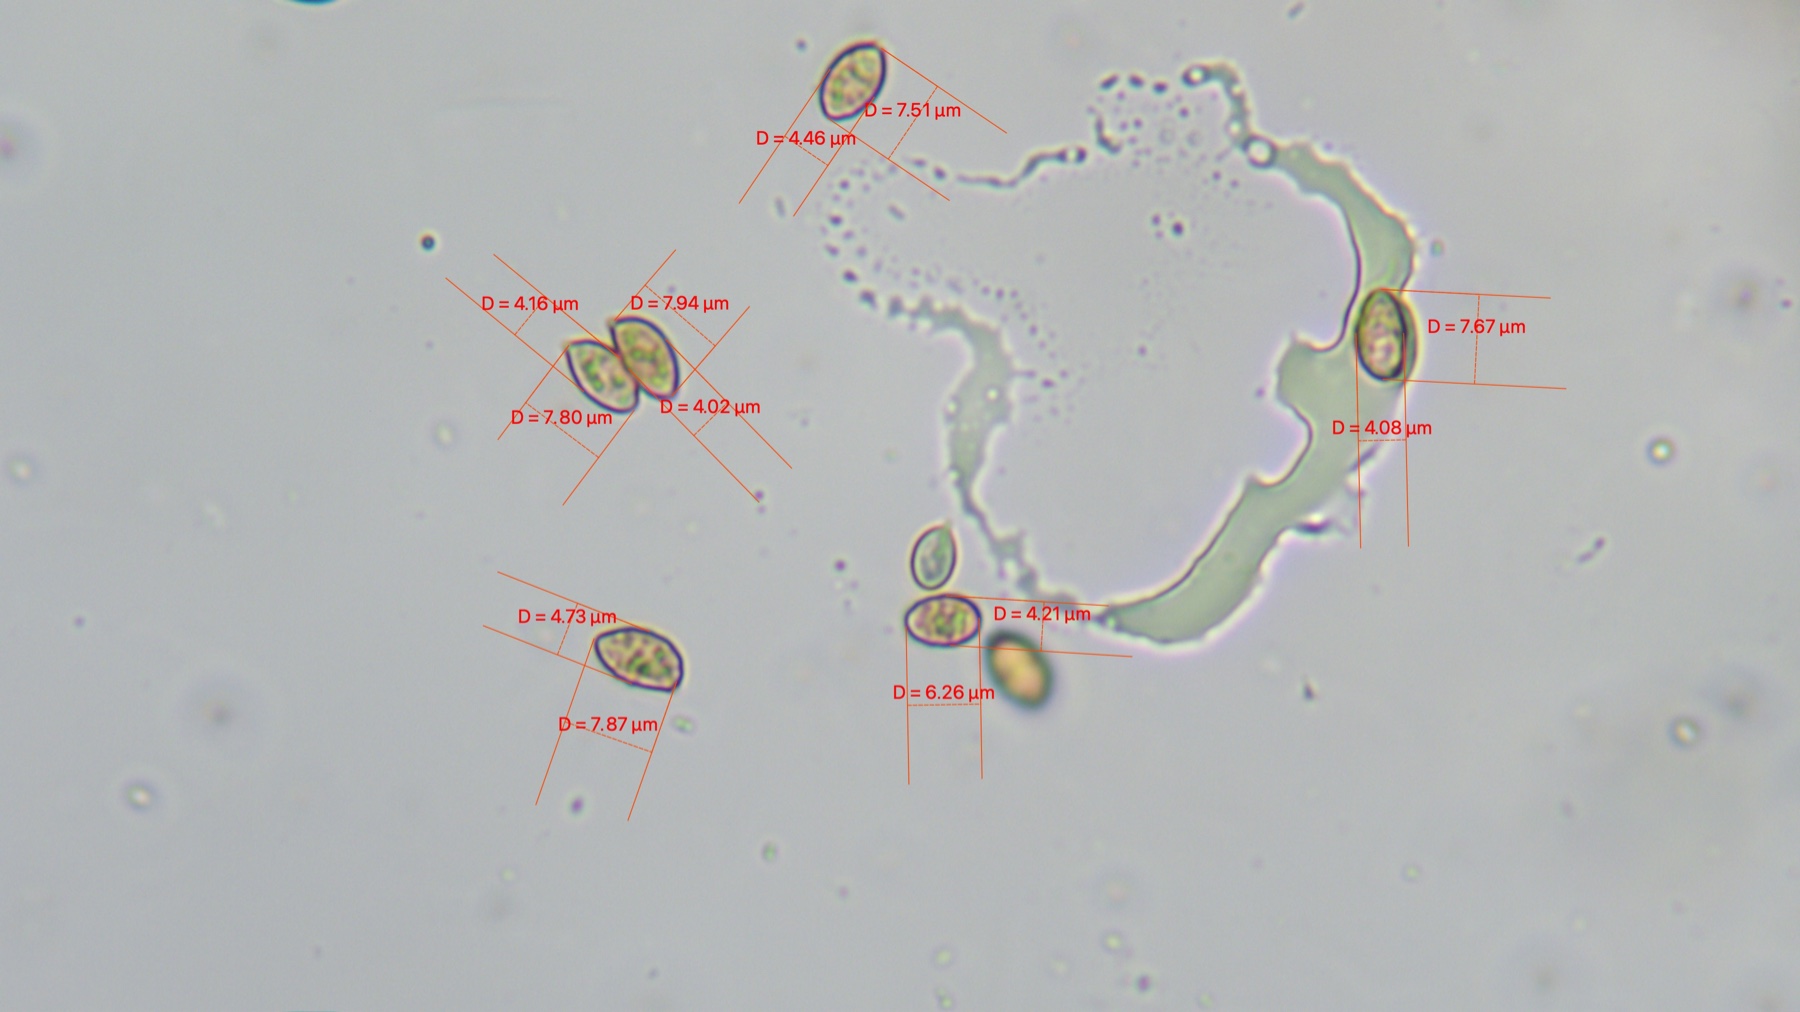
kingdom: Fungi
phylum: Basidiomycota
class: Agaricomycetes
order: Agaricales
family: Hymenogastraceae
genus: Galerina
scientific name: Galerina
